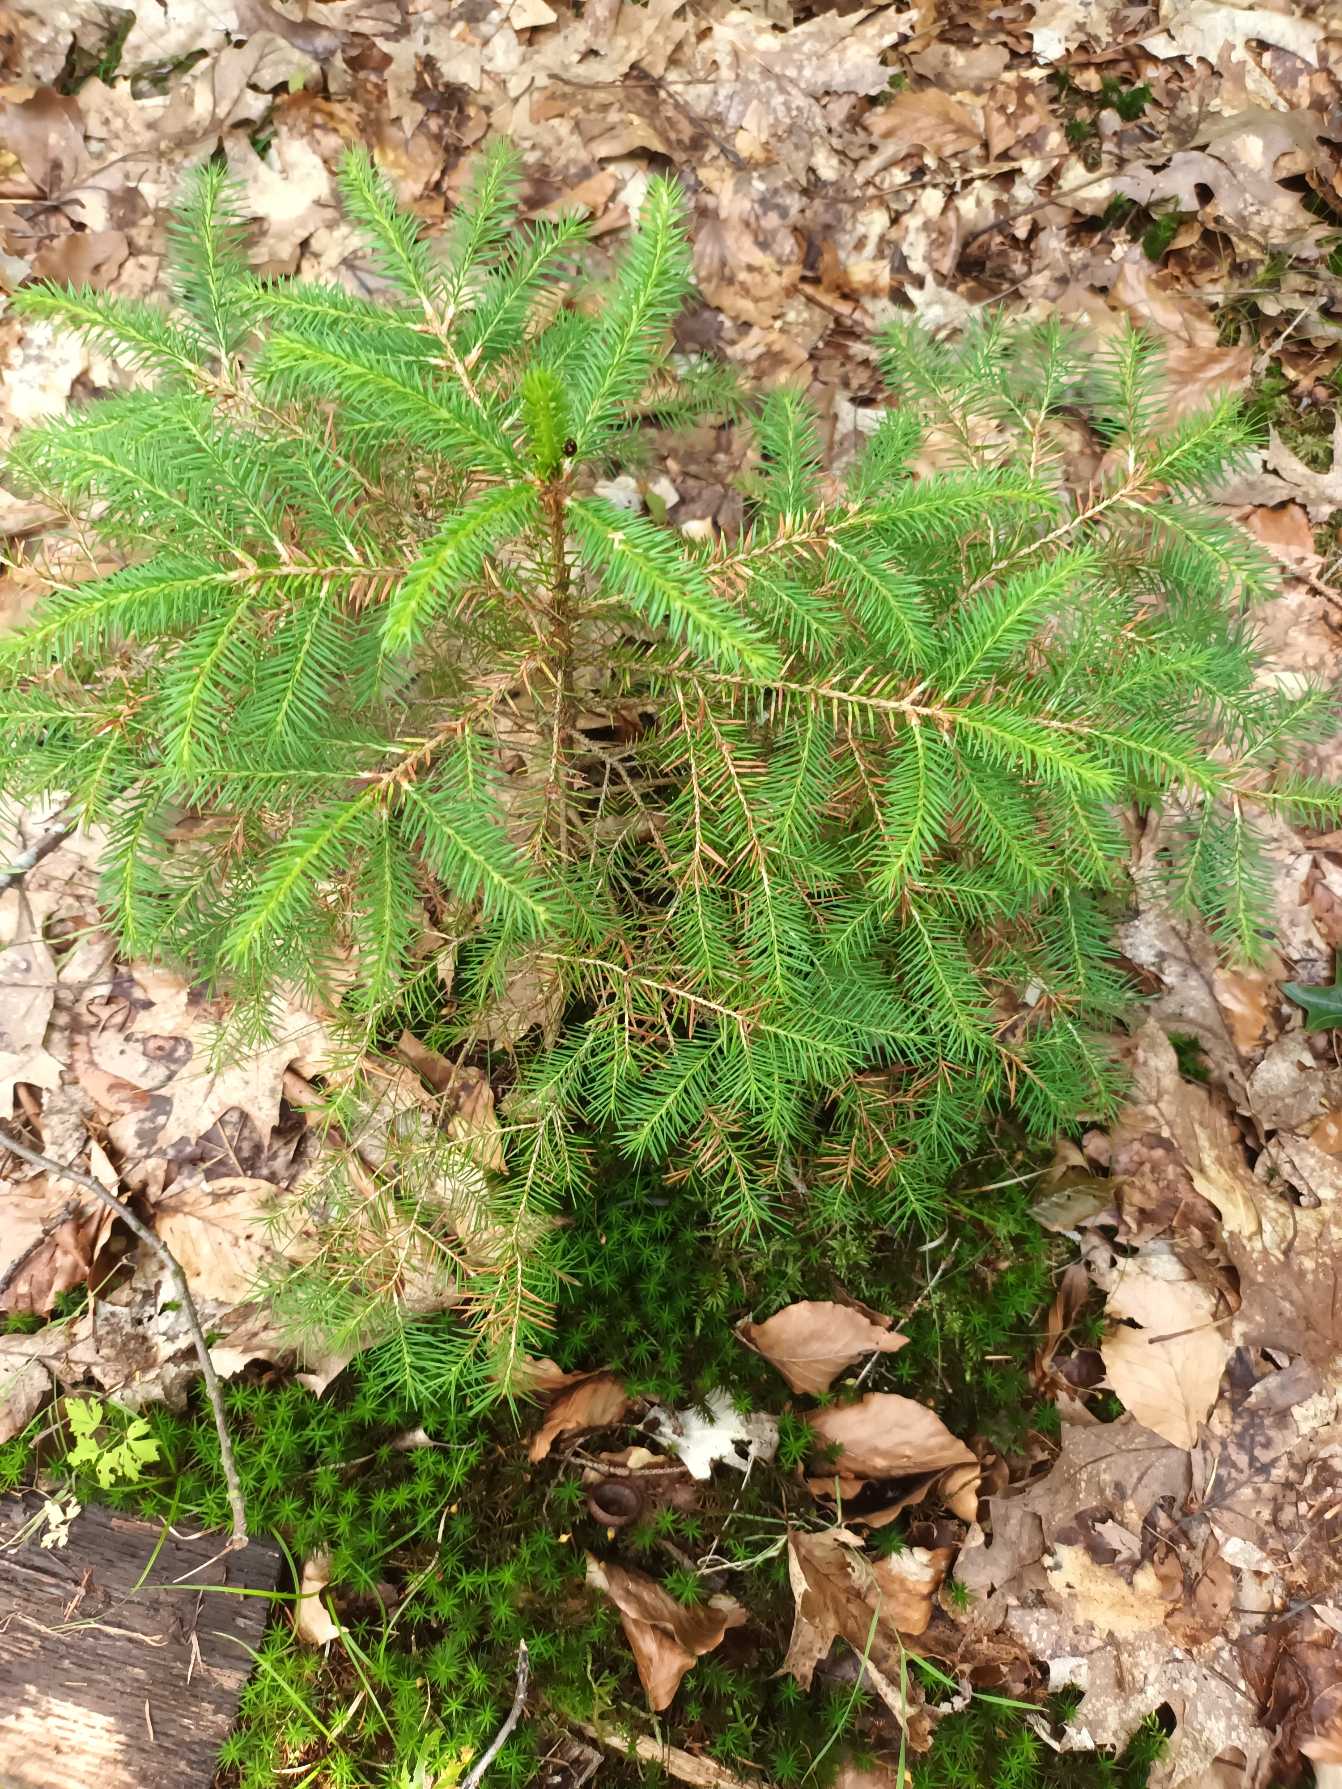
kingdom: Plantae
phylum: Tracheophyta
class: Pinopsida
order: Pinales
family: Pinaceae
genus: Picea
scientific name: Picea abies
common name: Rød-gran
